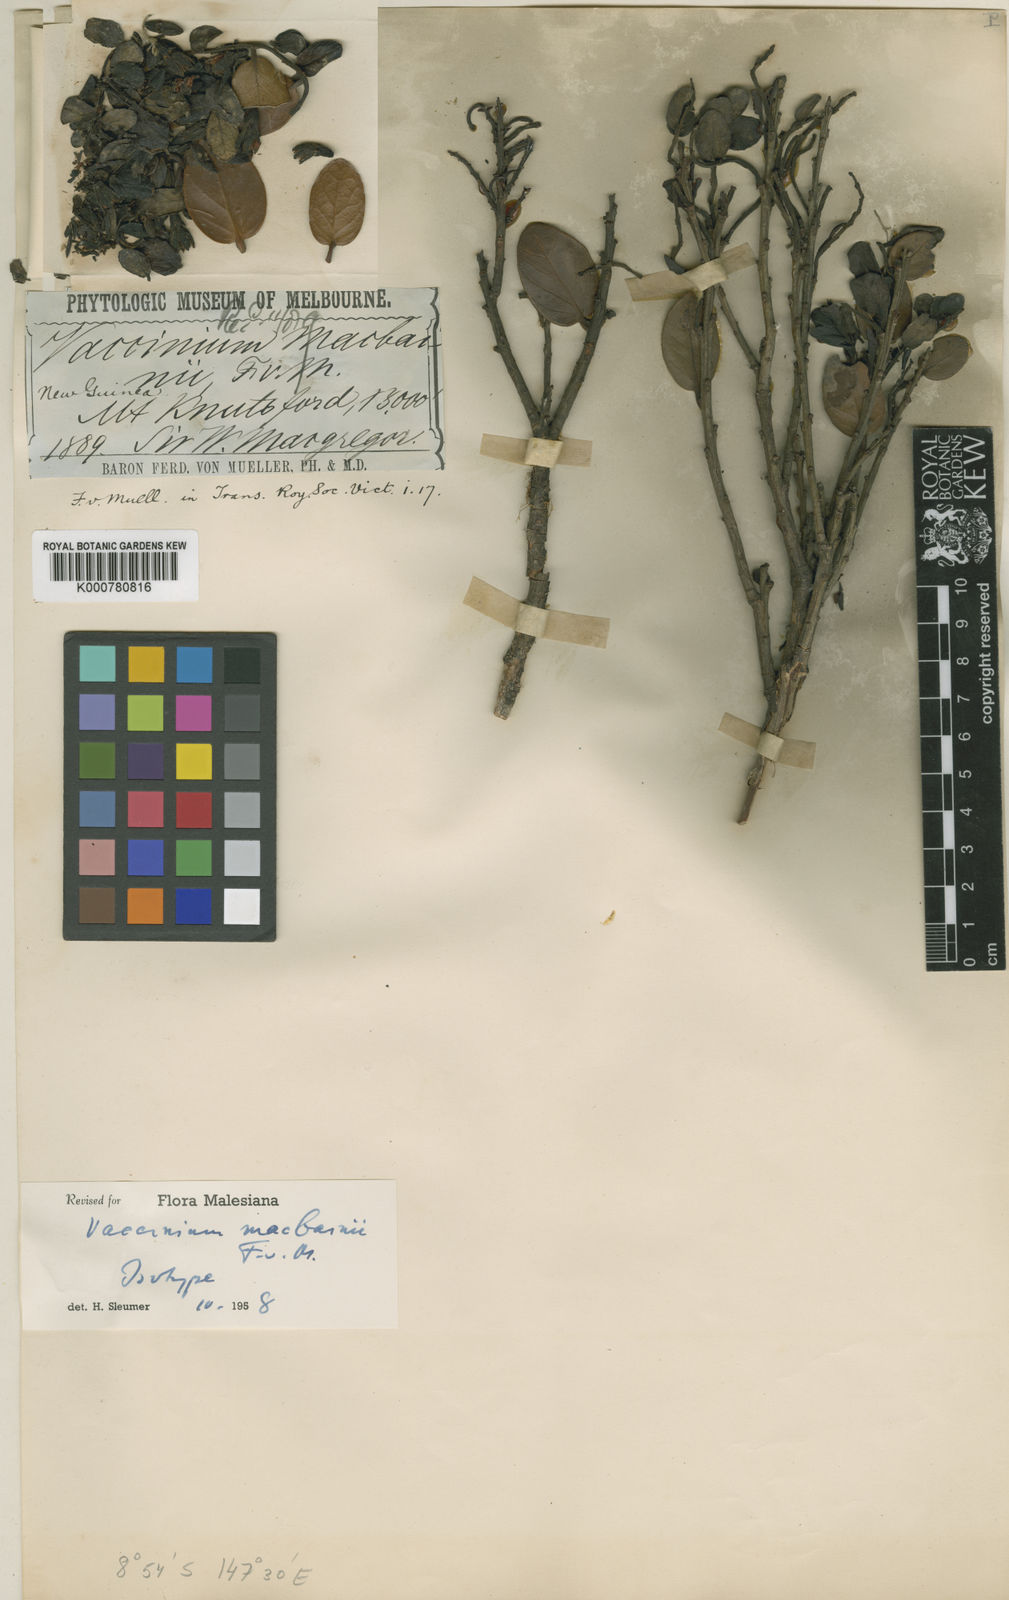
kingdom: Plantae
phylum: Tracheophyta
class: Magnoliopsida
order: Ericales
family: Ericaceae
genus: Dimorphanthera
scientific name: Dimorphanthera macbainii
